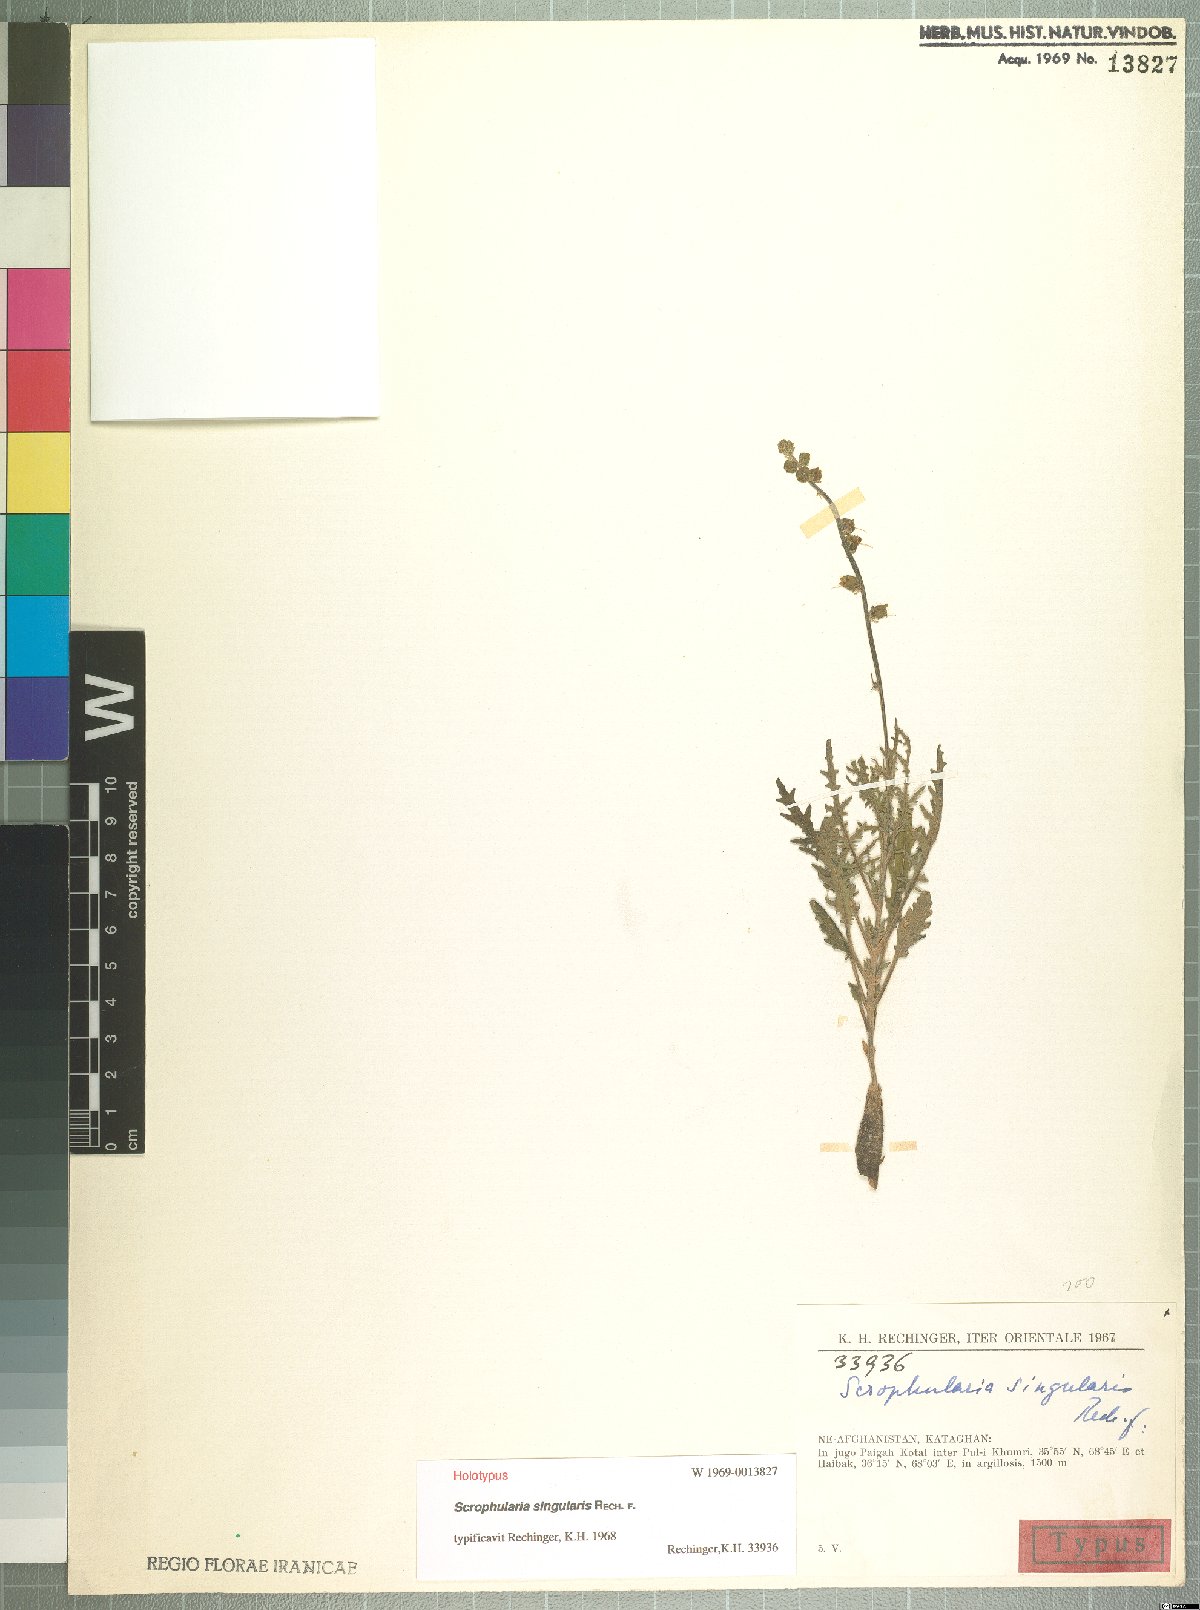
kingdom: Plantae
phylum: Tracheophyta
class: Magnoliopsida
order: Lamiales
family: Scrophulariaceae
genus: Scrophularia
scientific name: Scrophularia singularis
